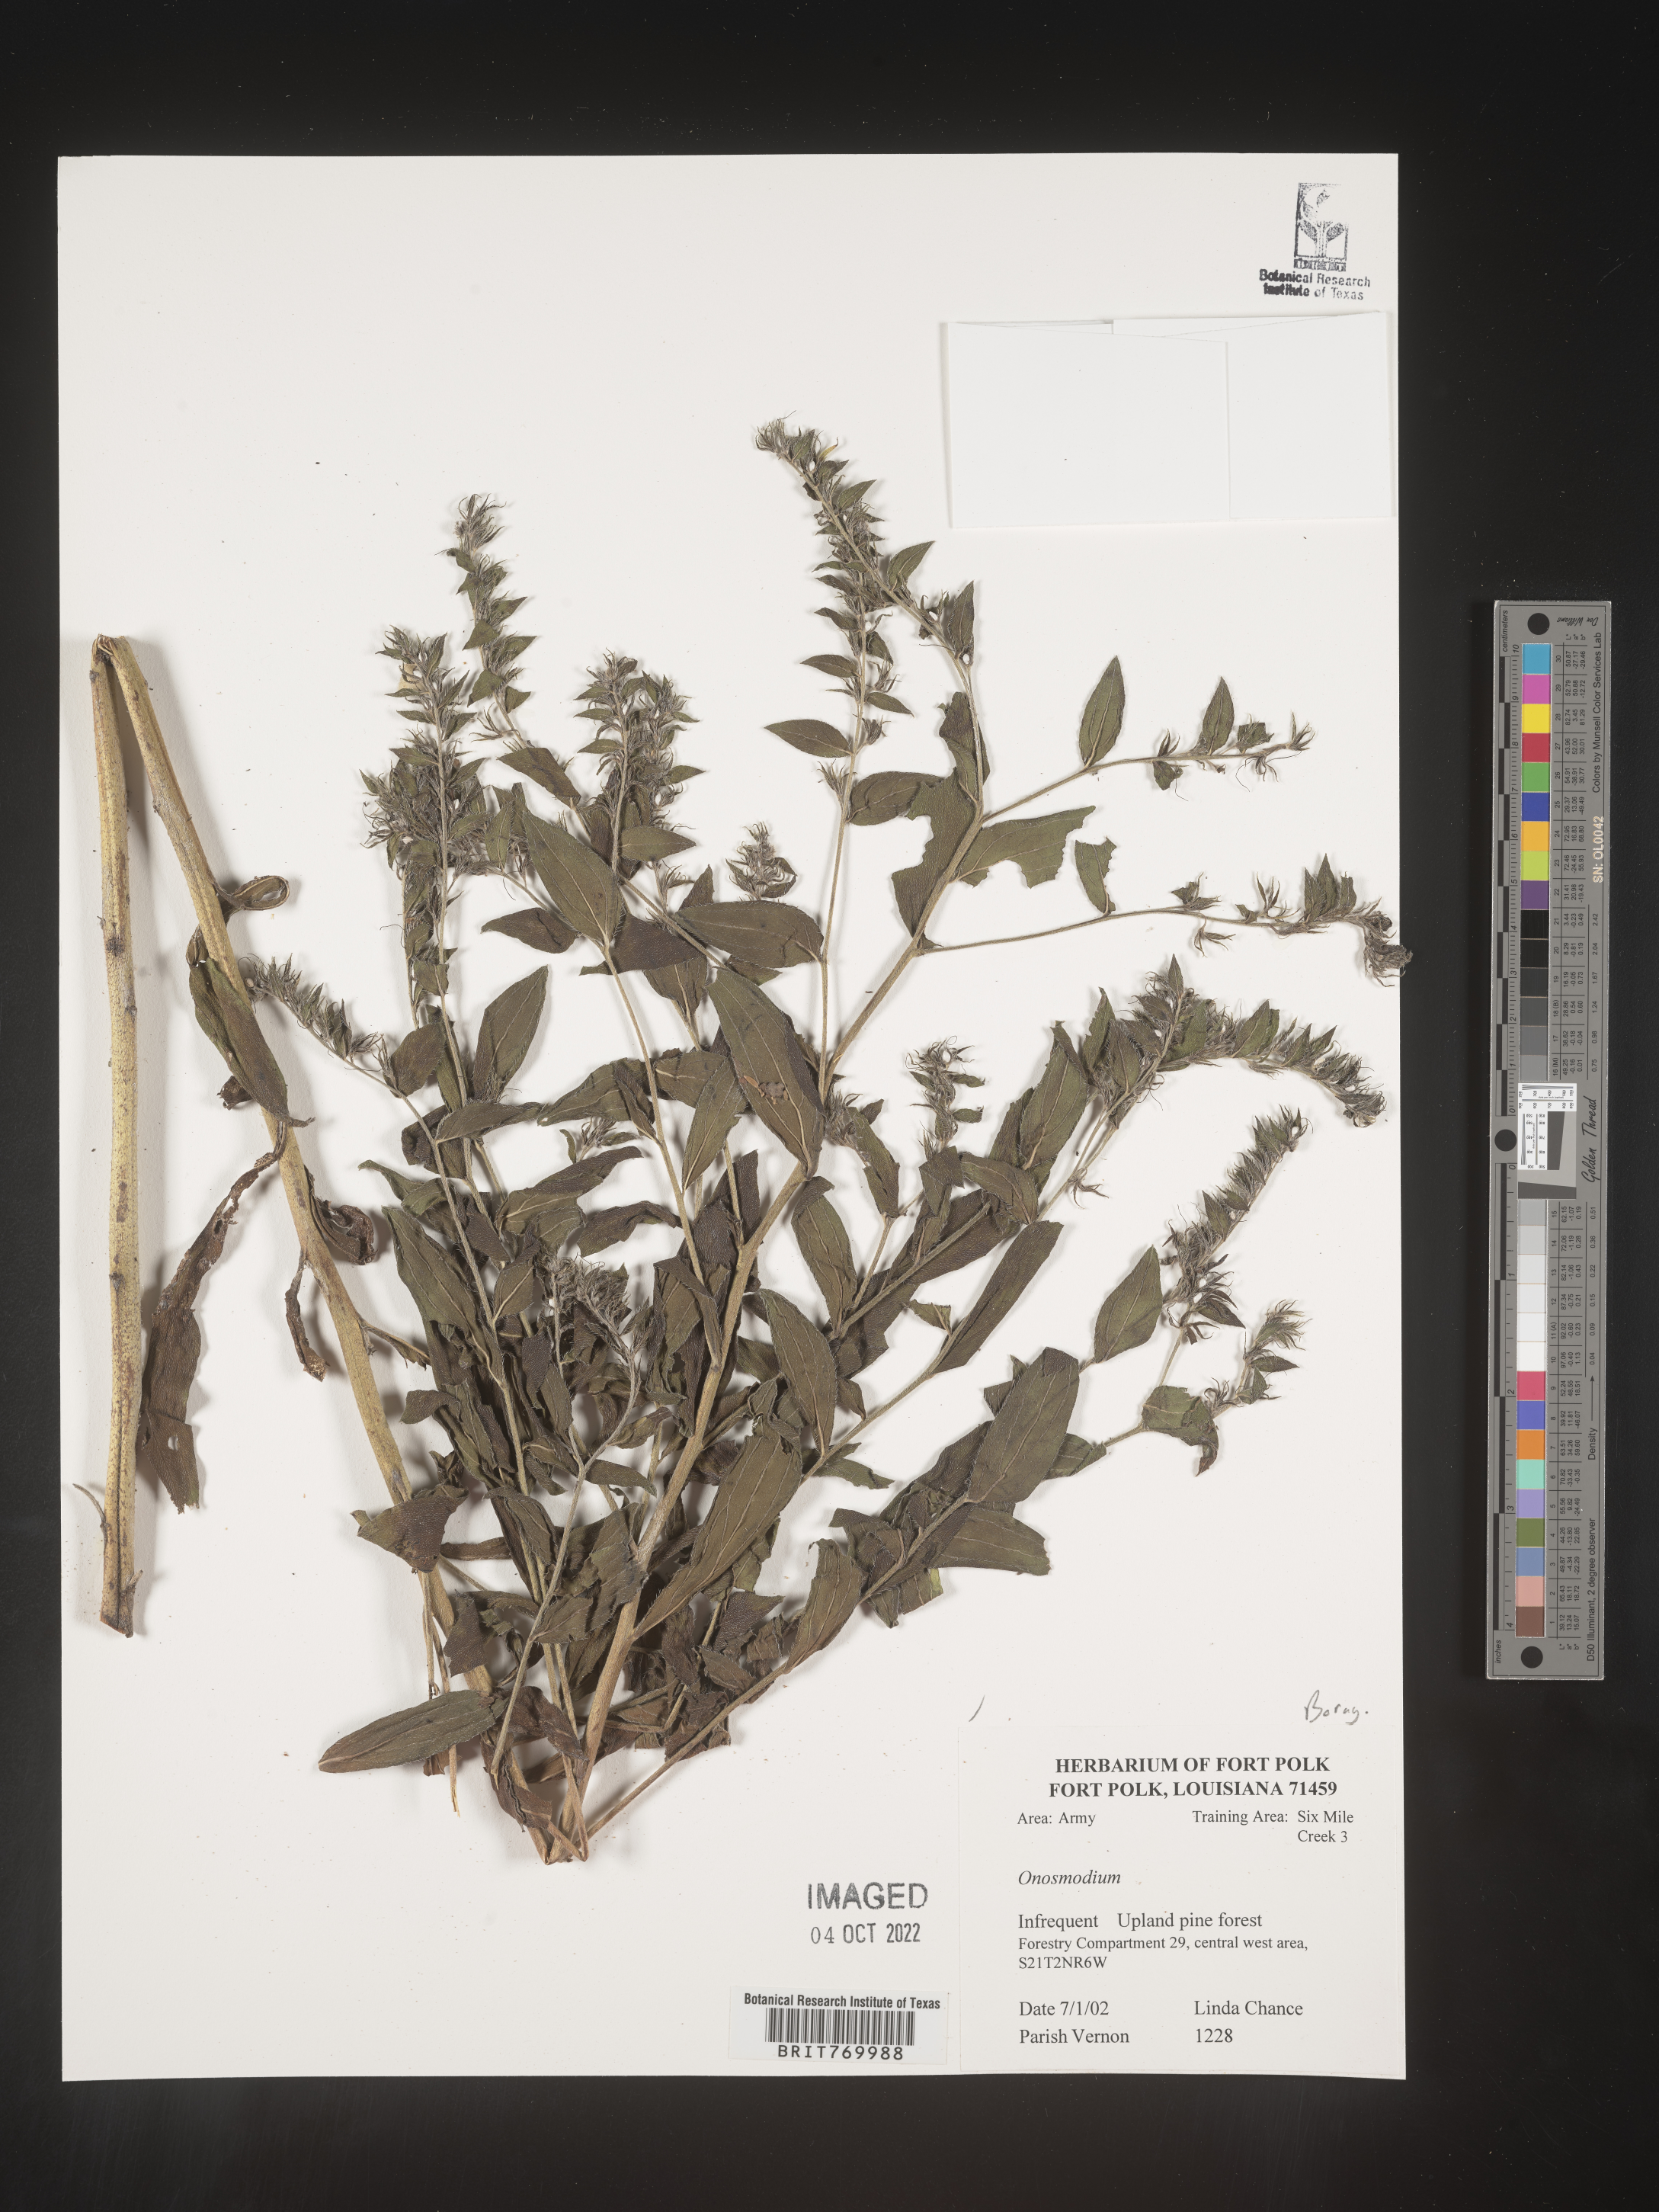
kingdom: Plantae
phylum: Tracheophyta
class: Magnoliopsida
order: Boraginales
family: Boraginaceae
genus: Lithospermum
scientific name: Lithospermum
